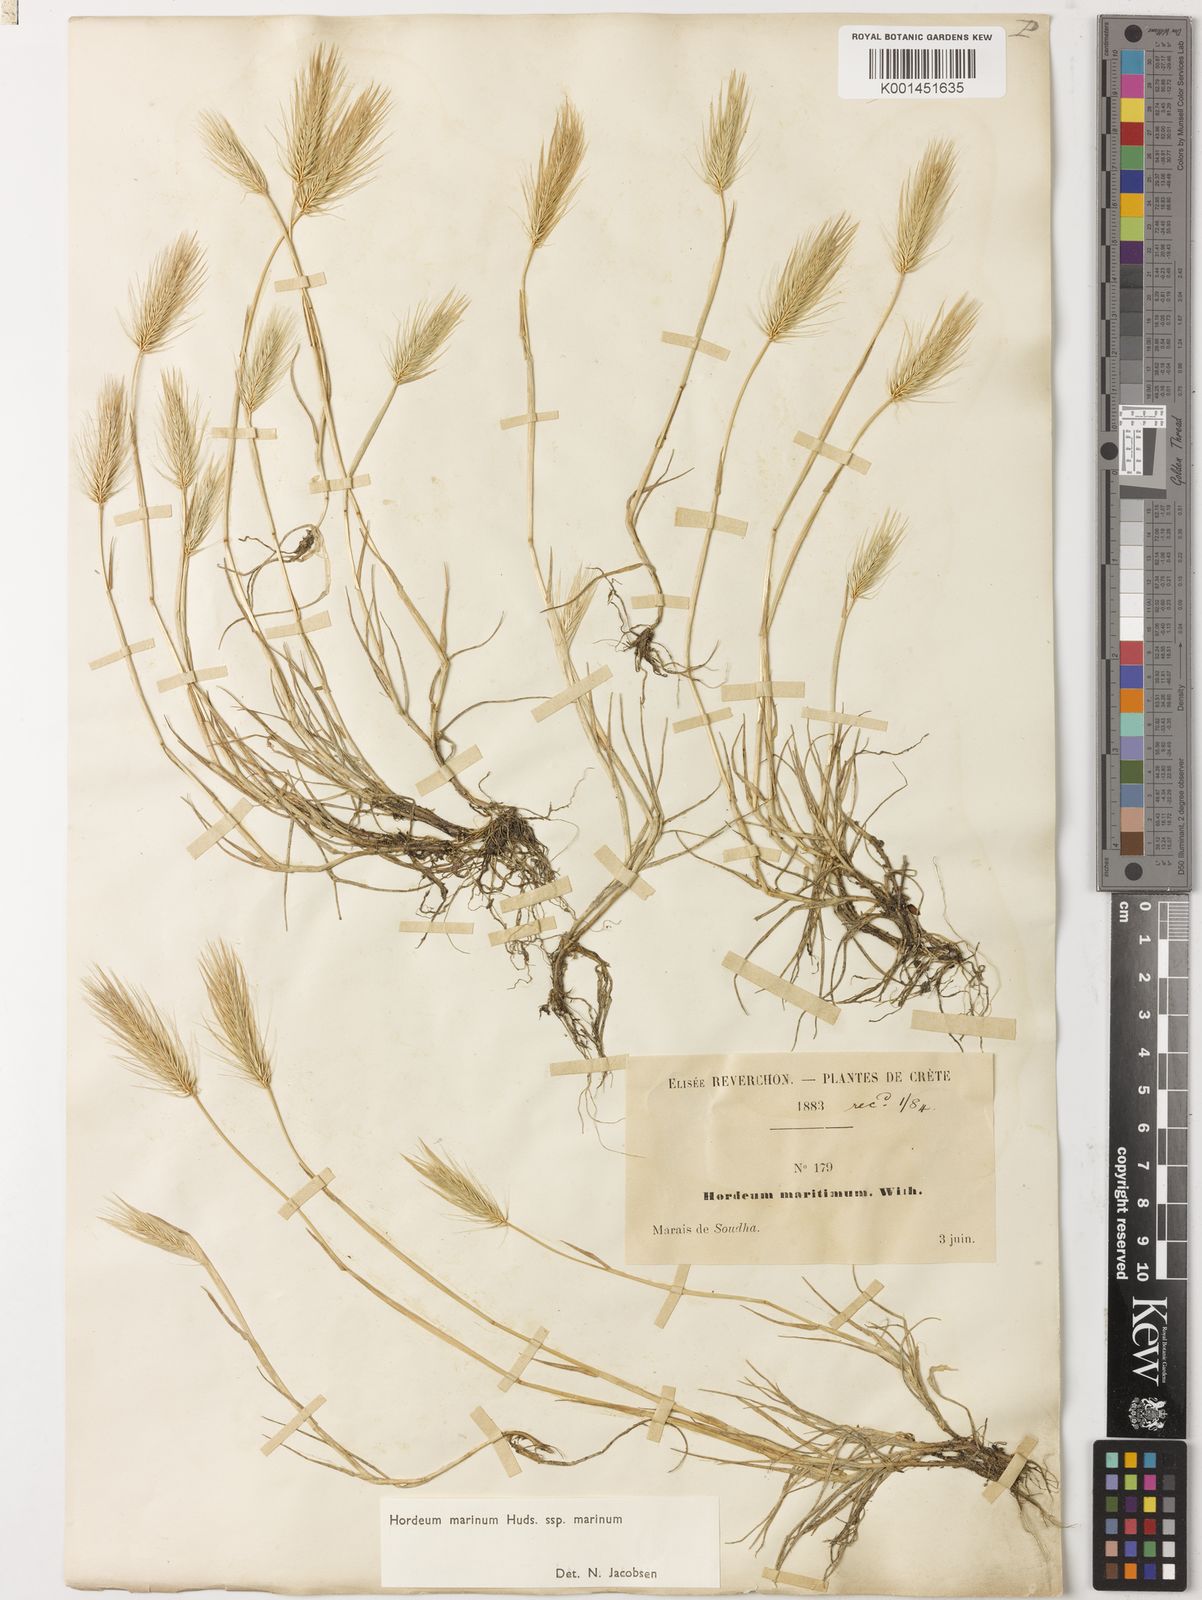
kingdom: Plantae
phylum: Tracheophyta
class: Liliopsida
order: Poales
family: Poaceae
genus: Hordeum
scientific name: Hordeum marinum
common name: Sea barley
